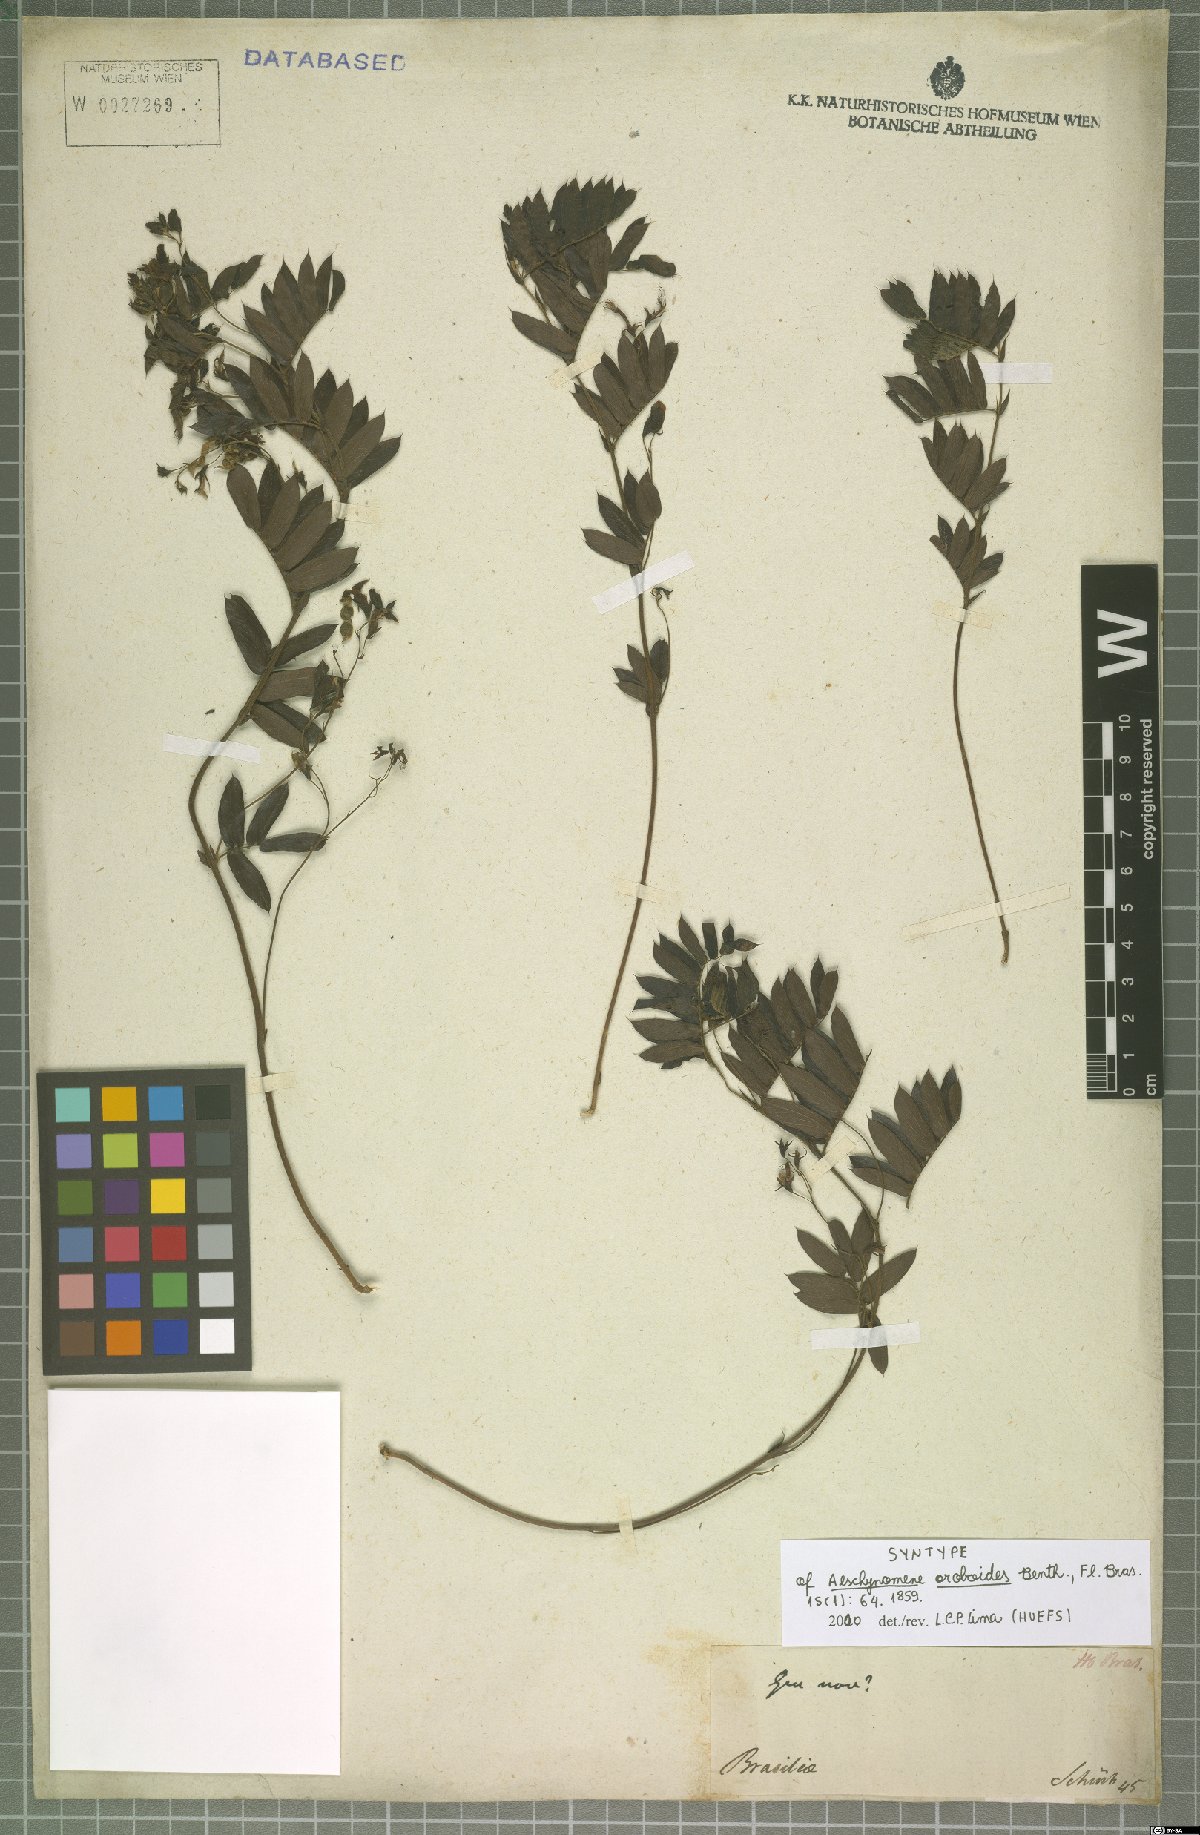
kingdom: Plantae
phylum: Tracheophyta
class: Magnoliopsida
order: Fabales
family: Fabaceae
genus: Ctenodon
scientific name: Ctenodon oroboides
